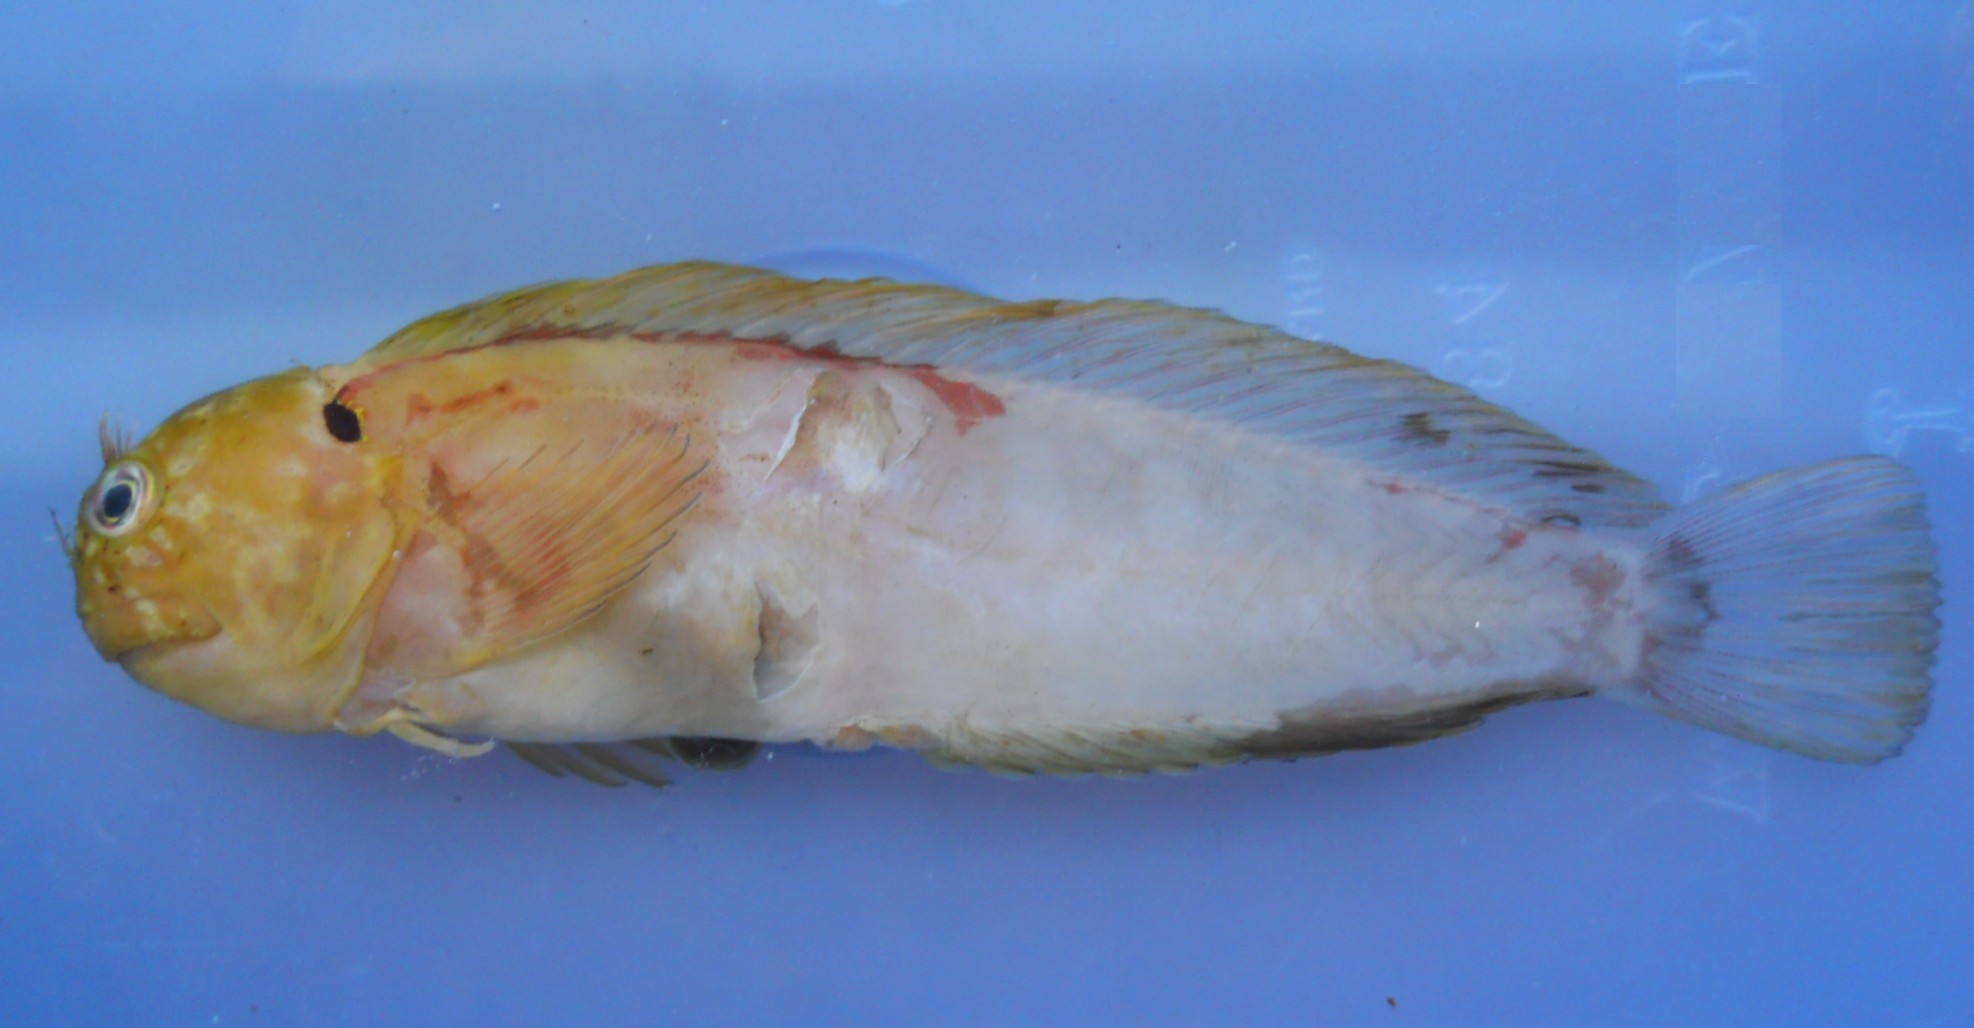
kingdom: Animalia
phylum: Chordata
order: Perciformes
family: Blenniidae
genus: Cirripectes
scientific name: Cirripectes auritus
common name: Eared blenny
